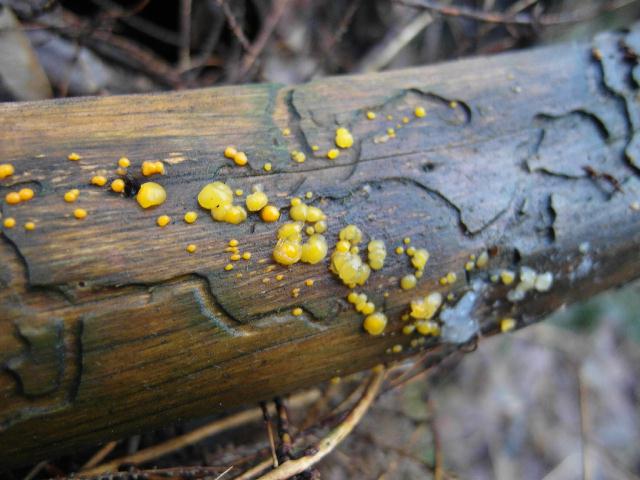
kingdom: Fungi
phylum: Basidiomycota
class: Dacrymycetes
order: Dacrymycetales
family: Dacrymycetaceae
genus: Dacrymyces
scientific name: Dacrymyces stillatus
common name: almindelig tåresvamp
